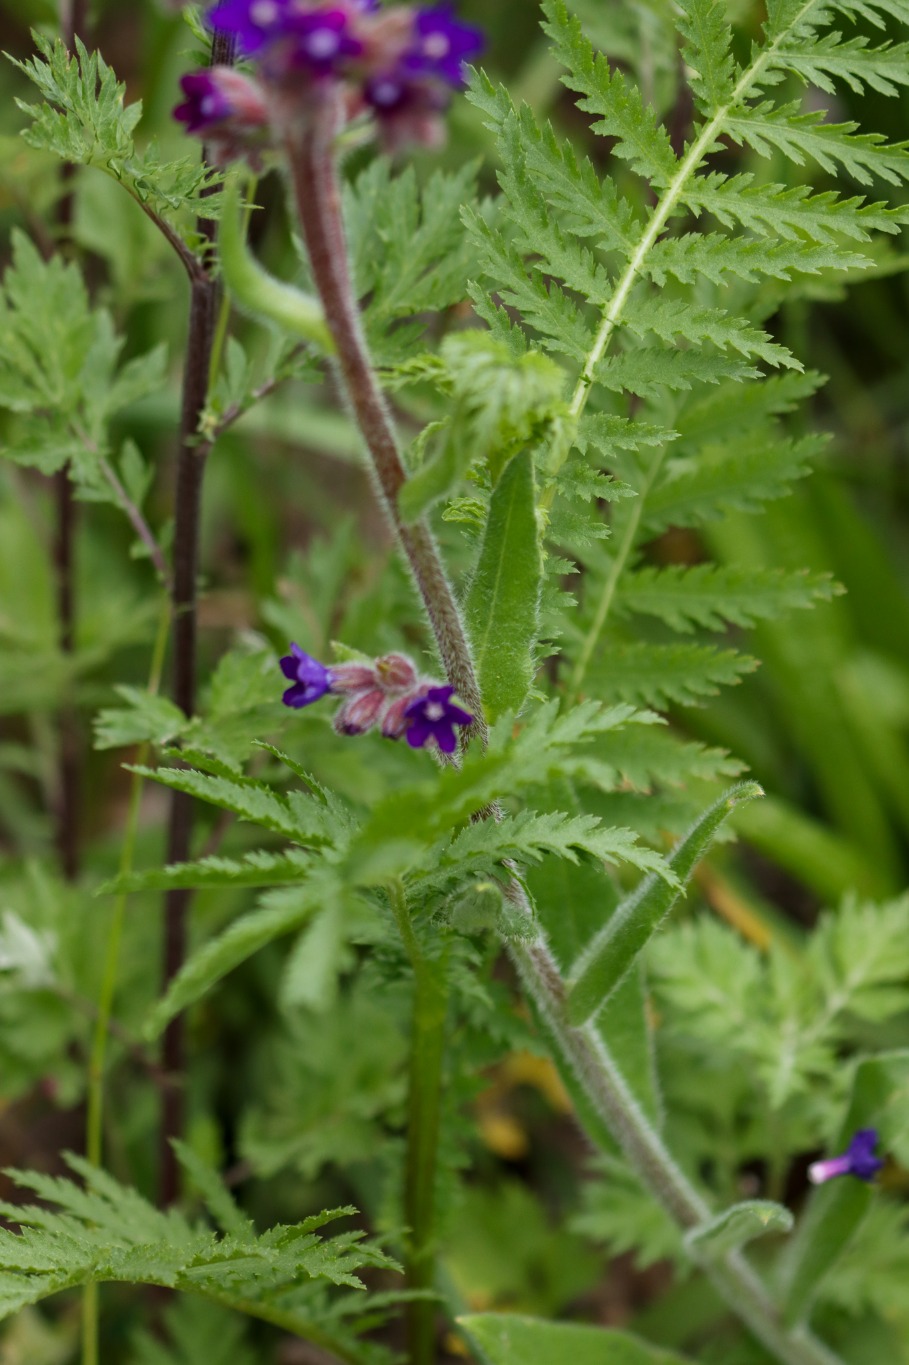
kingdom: Plantae
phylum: Tracheophyta
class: Magnoliopsida
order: Boraginales
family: Boraginaceae
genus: Anchusa
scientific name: Anchusa officinalis
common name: Læge-oksetunge
